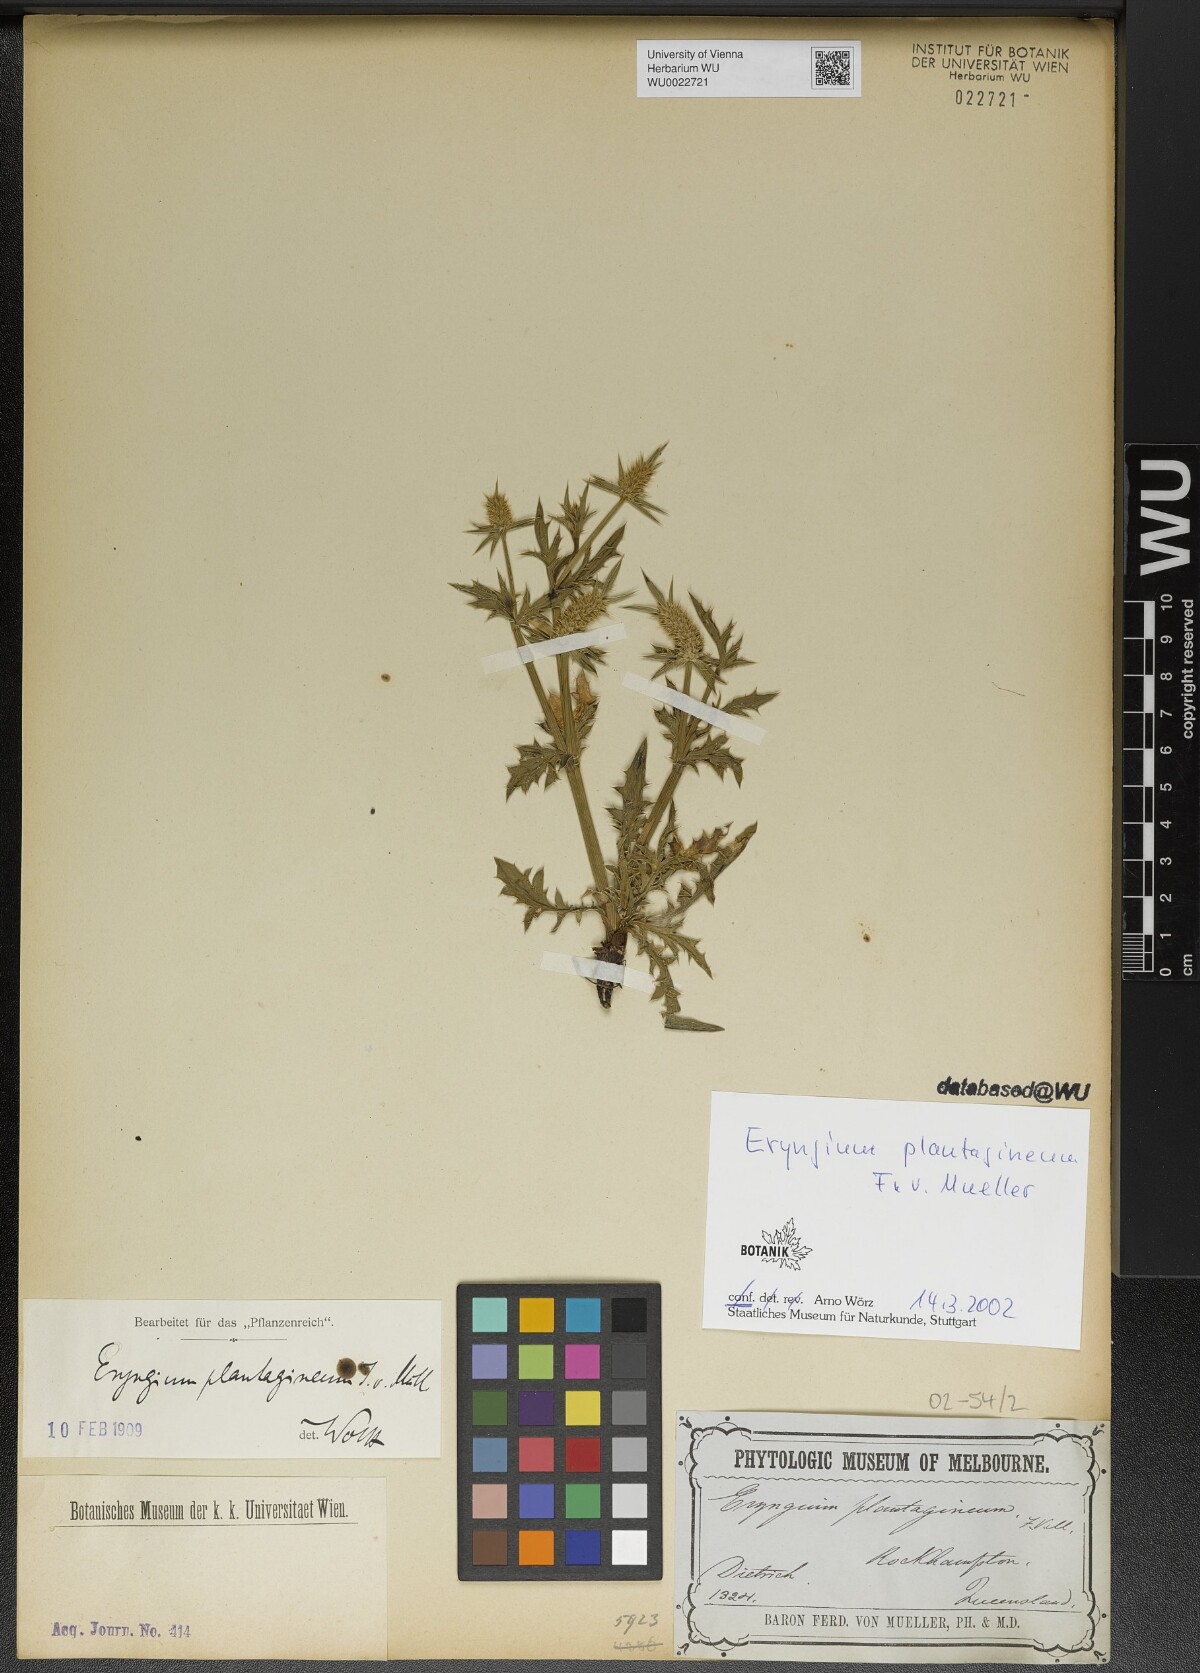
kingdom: Plantae
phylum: Tracheophyta
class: Magnoliopsida
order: Apiales
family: Apiaceae
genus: Eryngium
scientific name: Eryngium plantagineum
